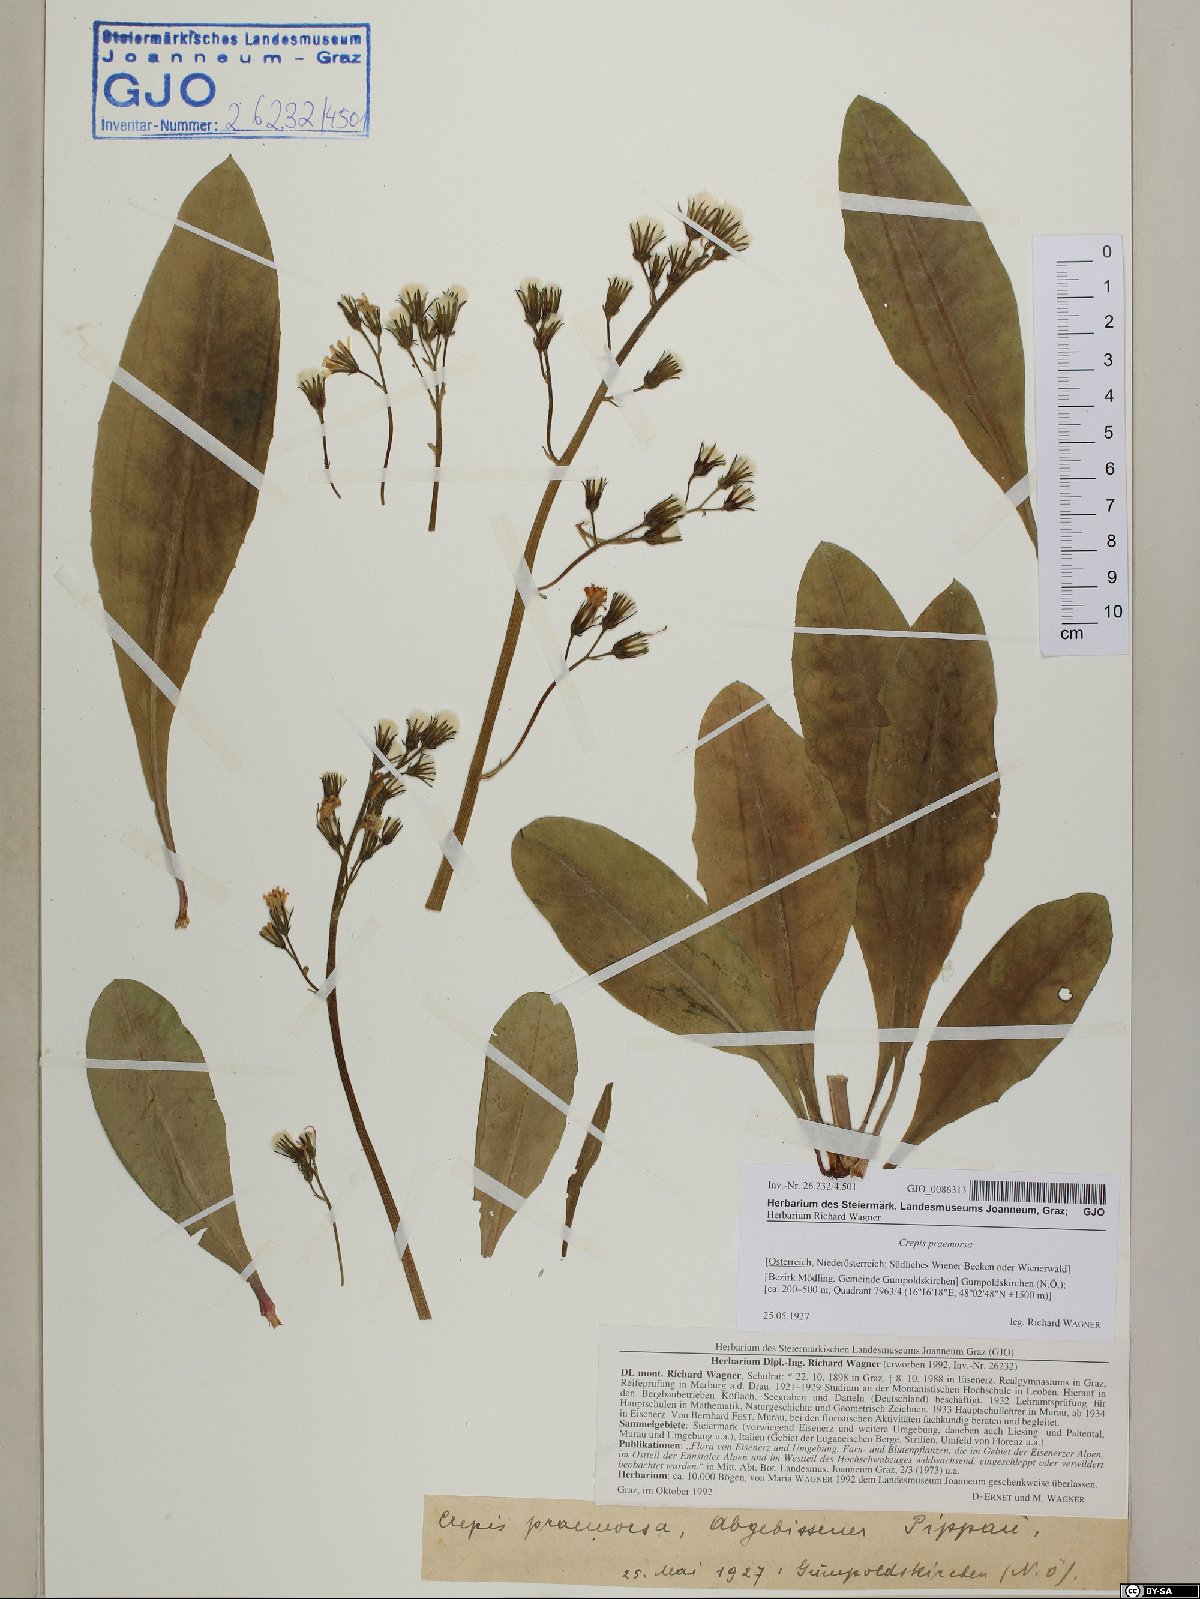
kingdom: Plantae
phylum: Tracheophyta
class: Magnoliopsida
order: Asterales
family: Asteraceae
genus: Crepis
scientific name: Crepis praemorsa
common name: Leafless hawk's-beard
